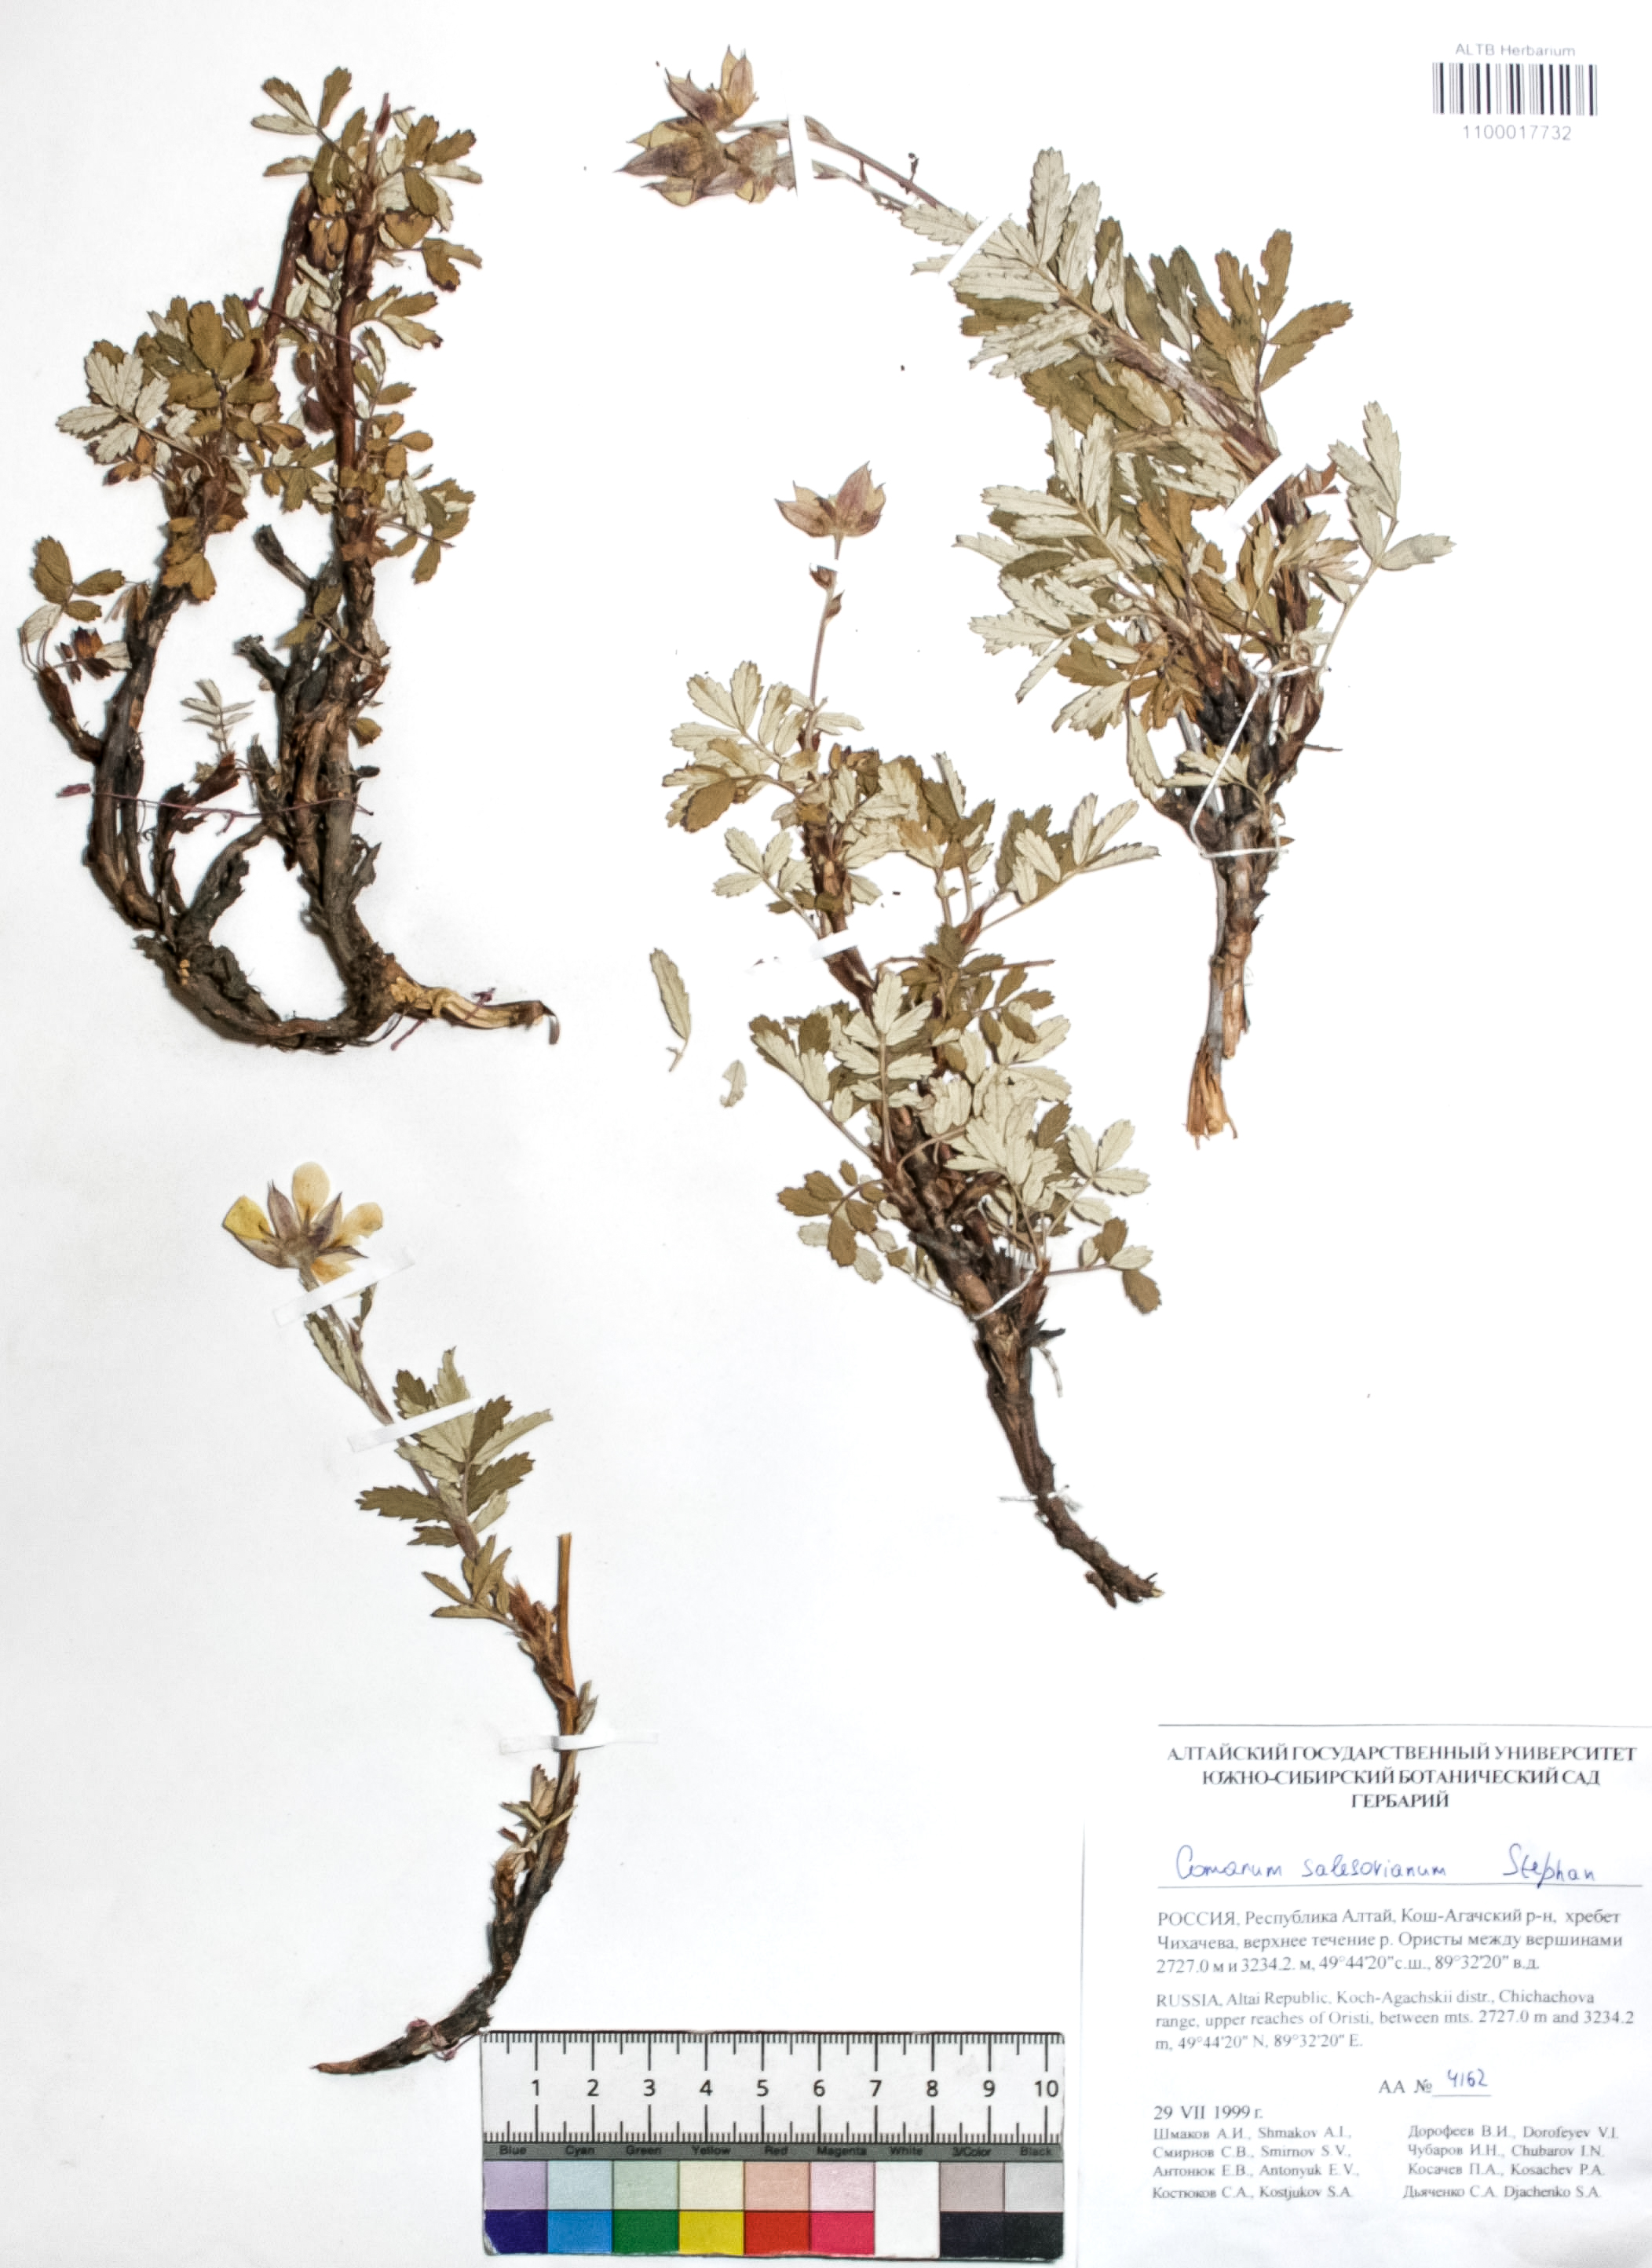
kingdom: Plantae
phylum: Tracheophyta
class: Magnoliopsida
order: Rosales
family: Rosaceae
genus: Farinopsis
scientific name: Farinopsis salesoviana
